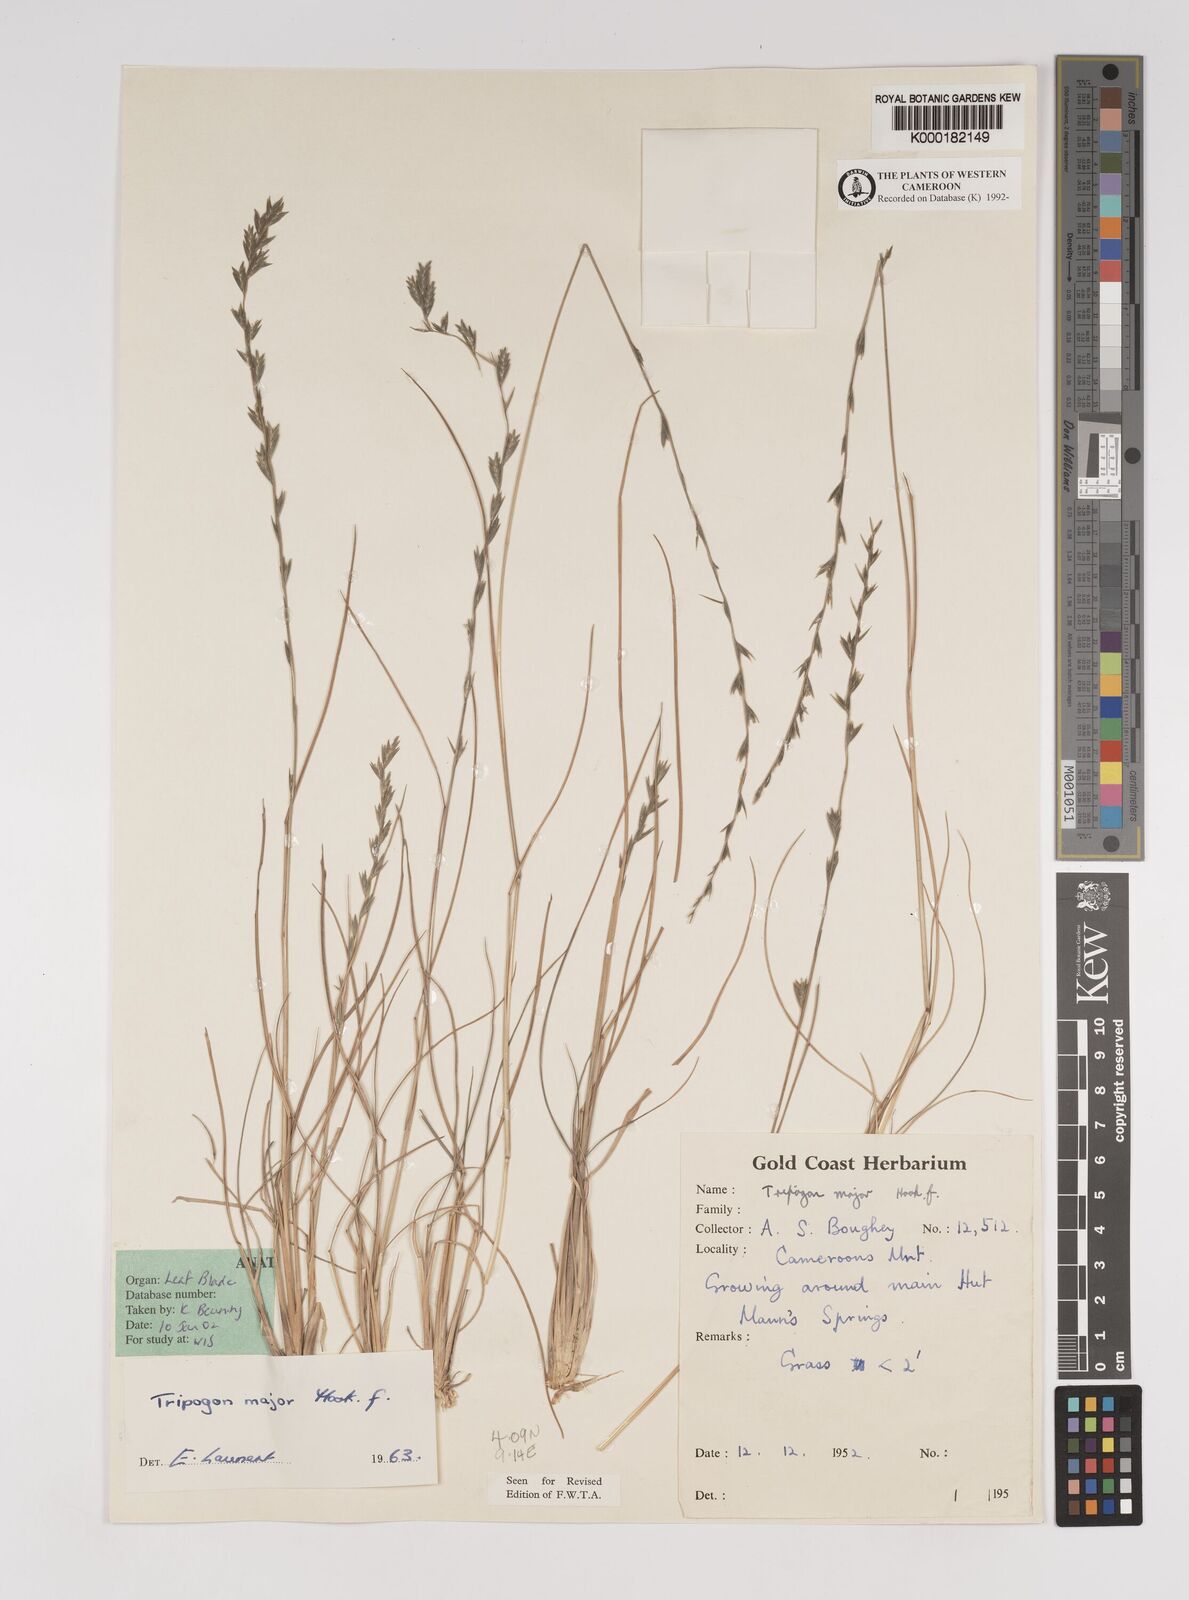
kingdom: Plantae
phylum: Tracheophyta
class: Liliopsida
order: Poales
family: Poaceae
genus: Tripogon
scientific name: Tripogon major
